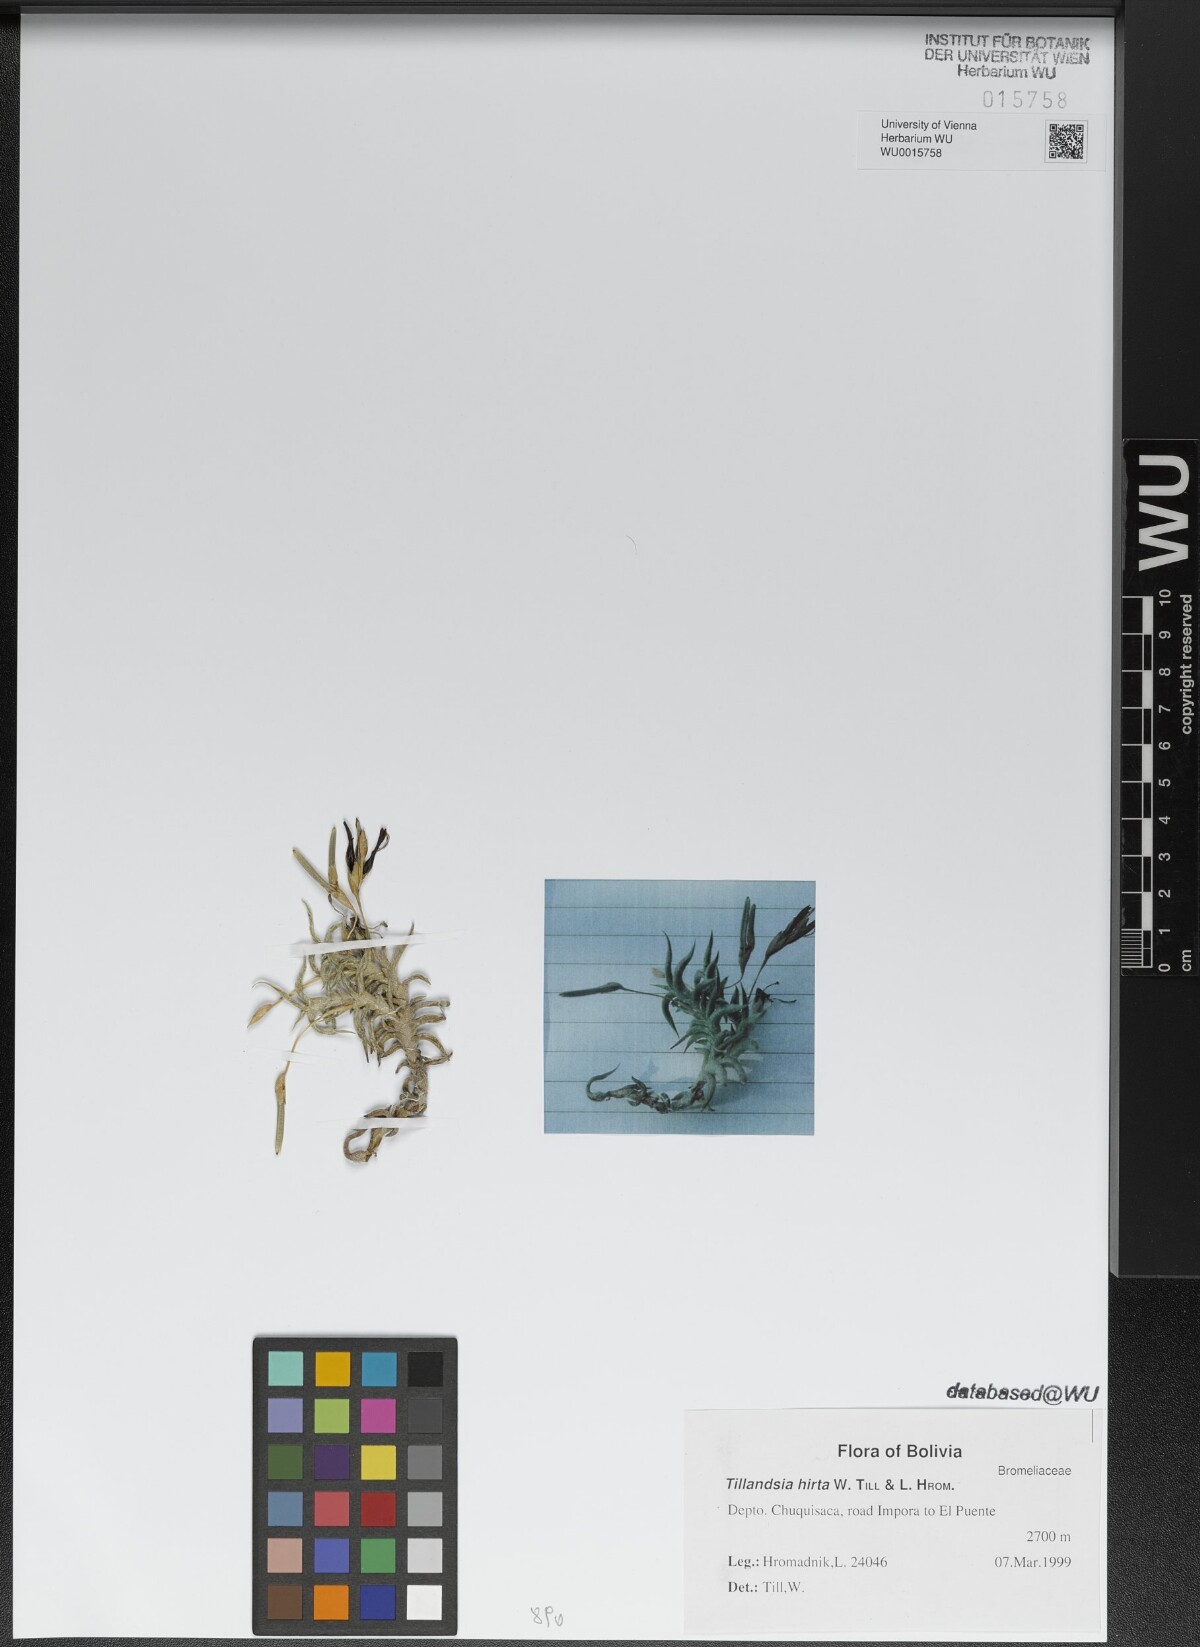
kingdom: Plantae
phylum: Tracheophyta
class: Liliopsida
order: Poales
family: Bromeliaceae
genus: Tillandsia
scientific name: Tillandsia hirta
